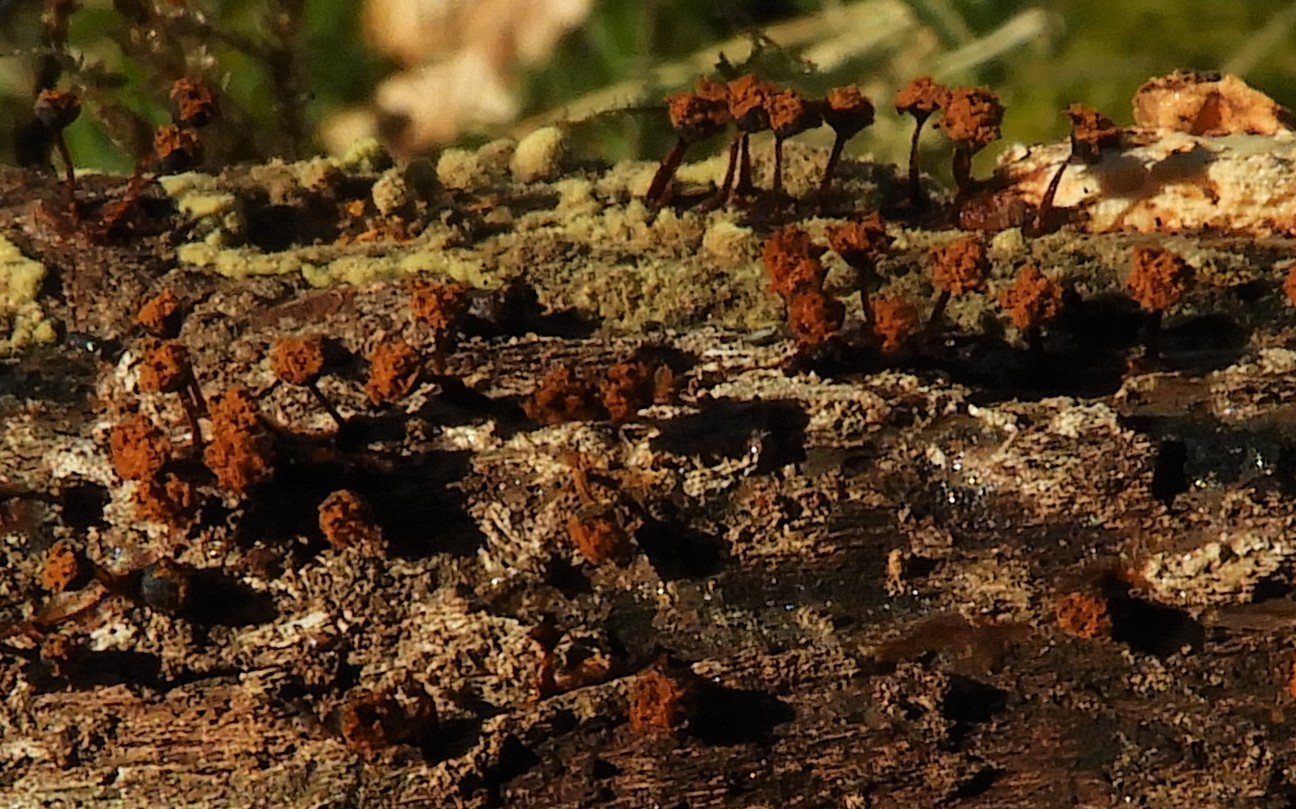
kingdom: Protozoa
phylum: Mycetozoa
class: Myxomycetes
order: Trichiales
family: Trichiaceae
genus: Metatrichia
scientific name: Metatrichia floriformis
